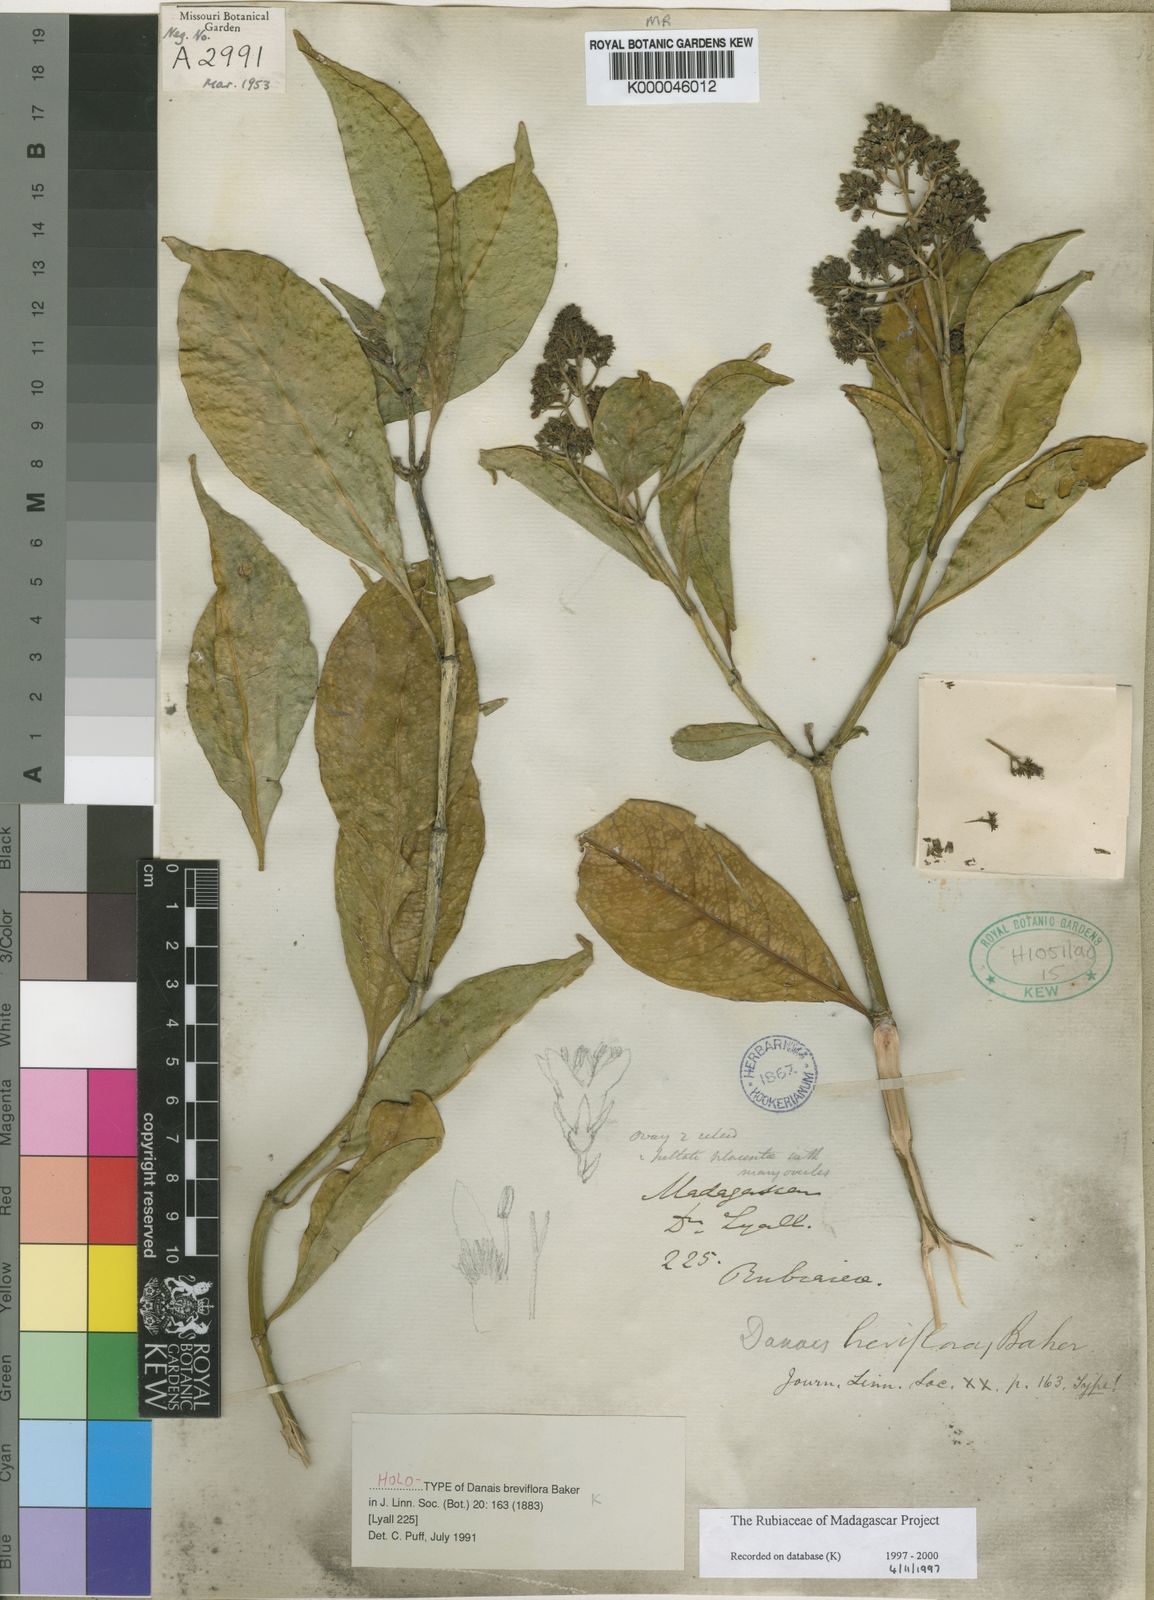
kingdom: Plantae
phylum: Tracheophyta
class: Magnoliopsida
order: Gentianales
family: Rubiaceae
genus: Danais
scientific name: Danais breviflora
